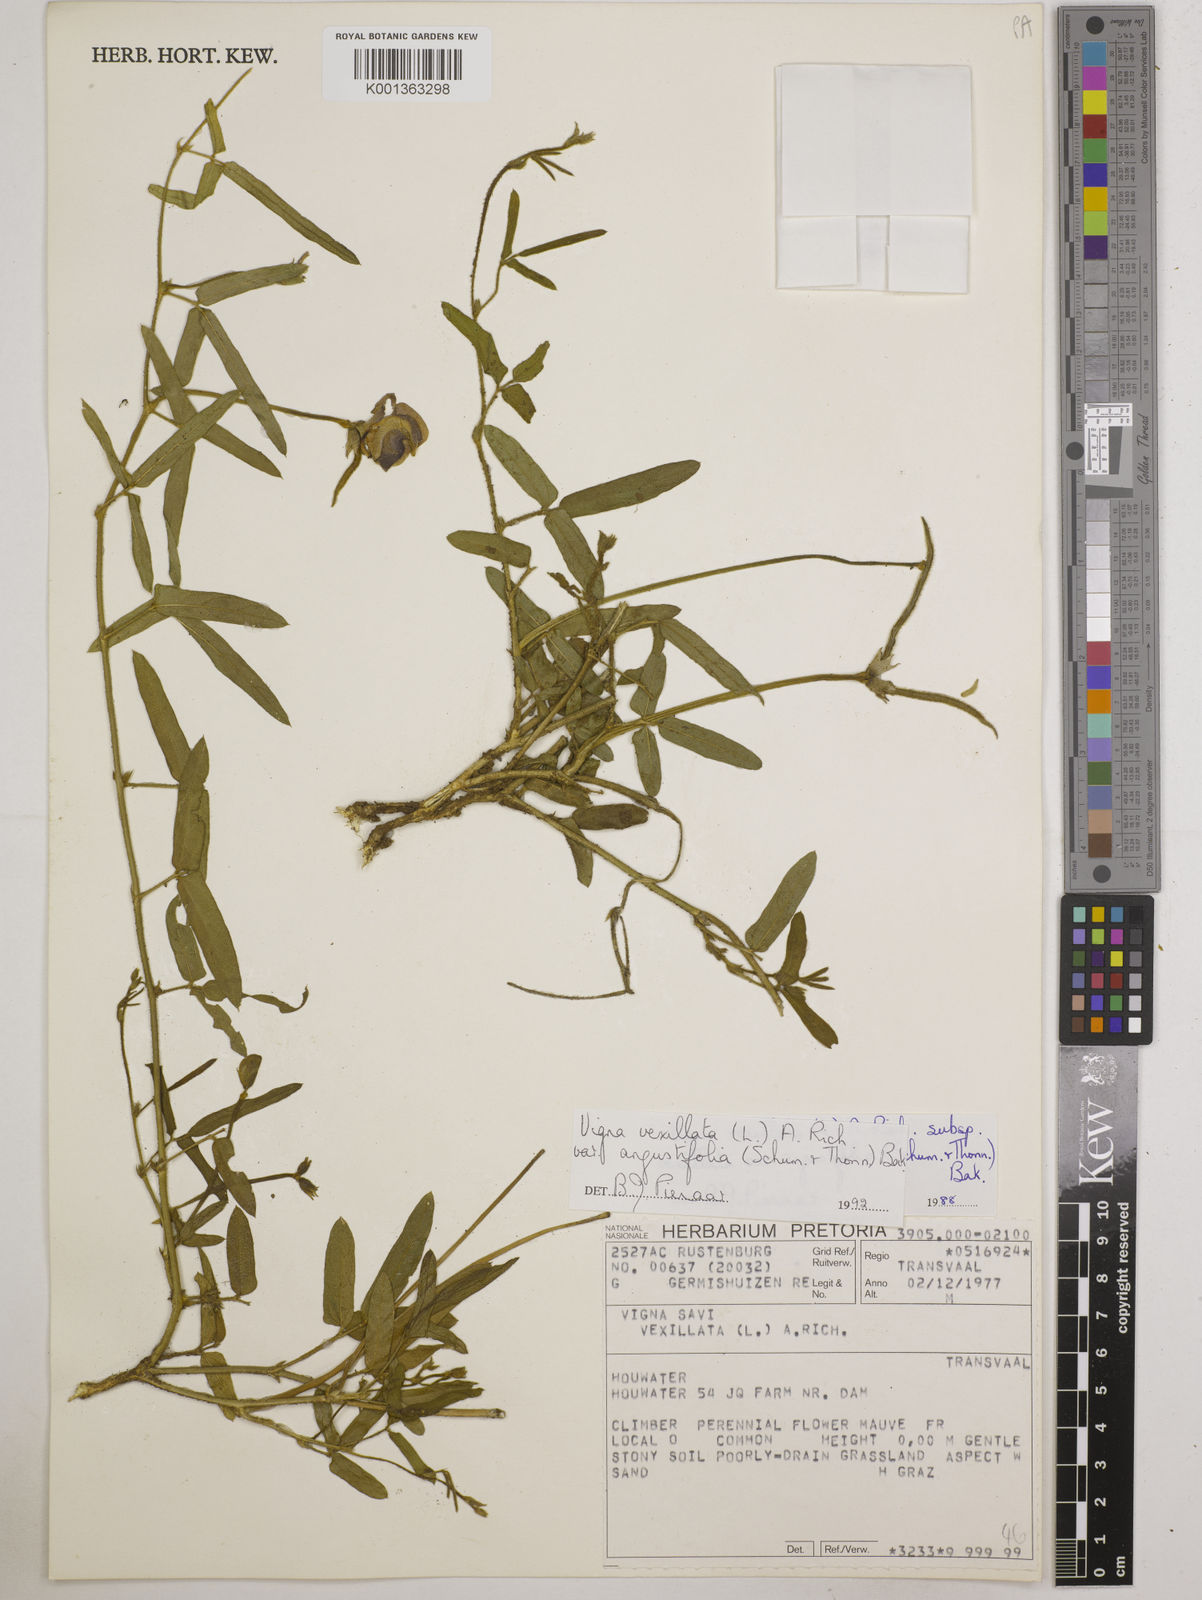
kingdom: Plantae
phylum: Tracheophyta
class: Magnoliopsida
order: Fabales
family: Fabaceae
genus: Vigna
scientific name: Vigna vexillata
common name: Zombi pea
